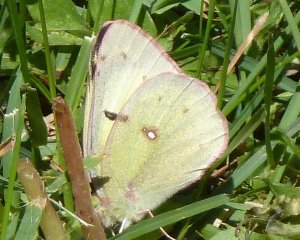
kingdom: Animalia
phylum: Arthropoda
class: Insecta
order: Lepidoptera
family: Pieridae
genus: Colias
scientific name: Colias philodice
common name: Clouded Sulphur
